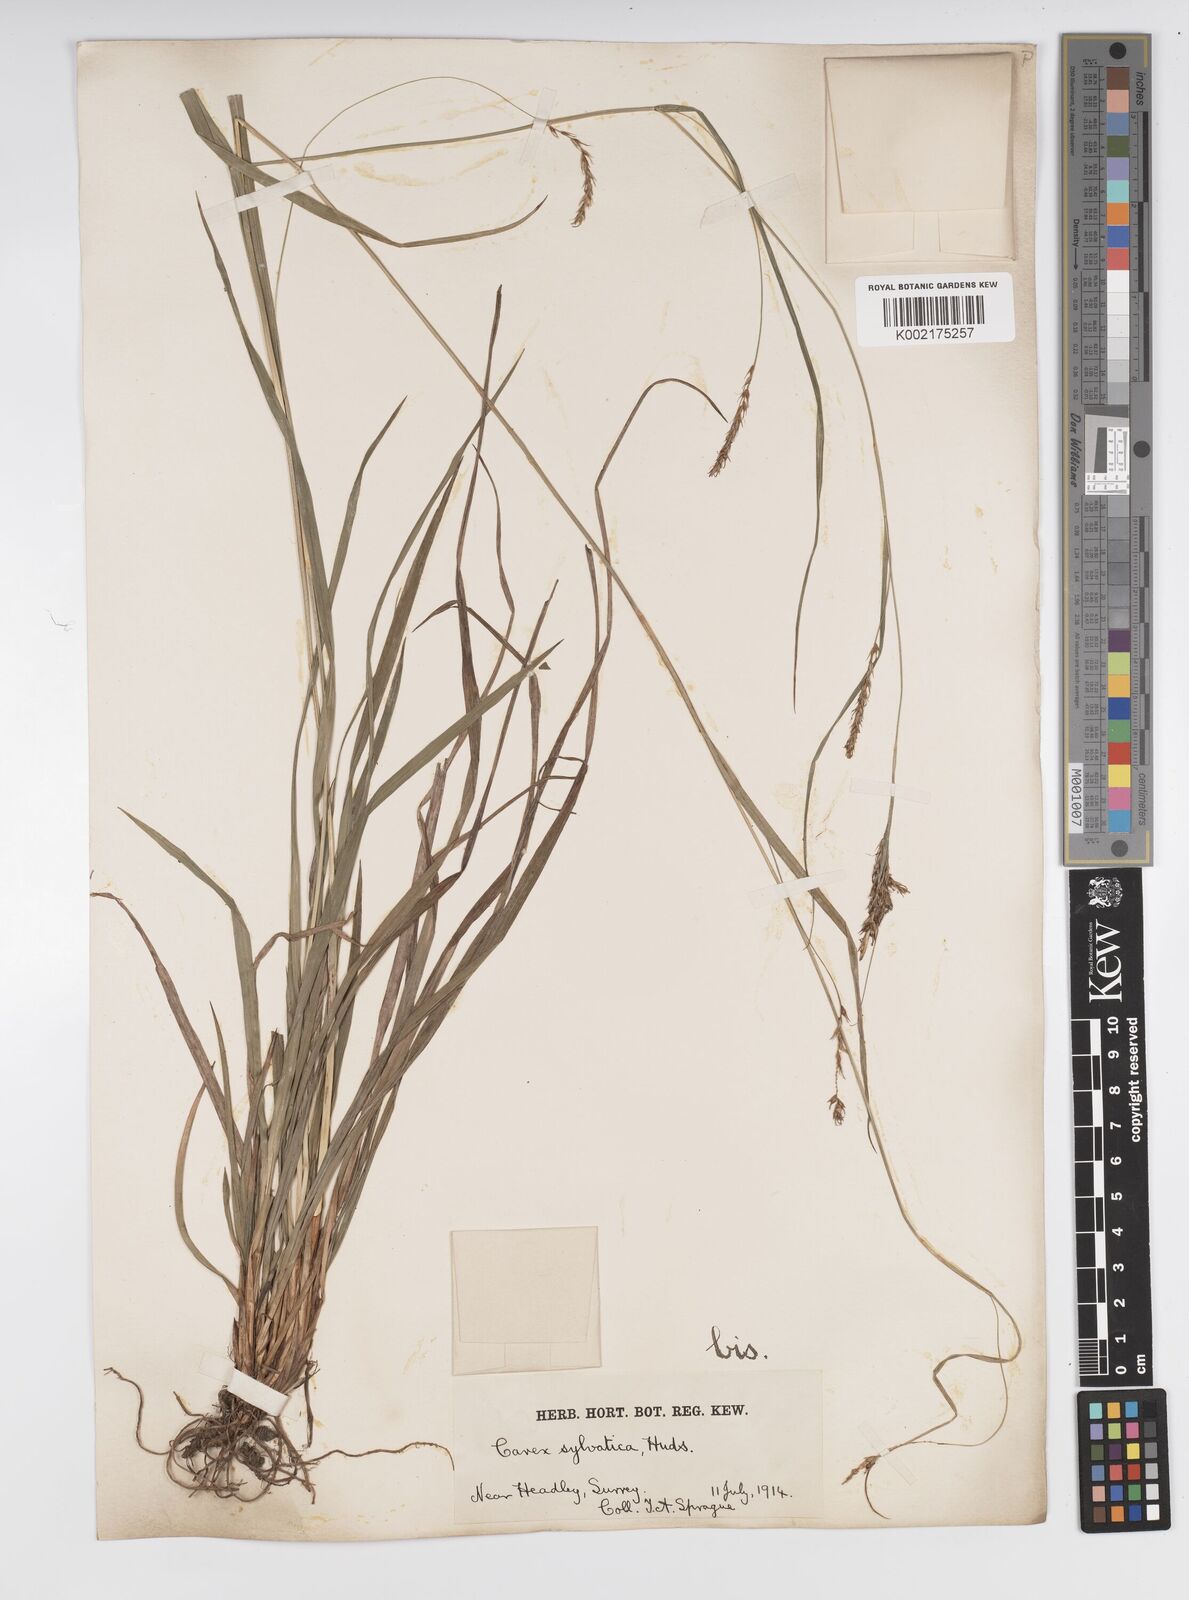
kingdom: Plantae
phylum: Tracheophyta
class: Liliopsida
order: Poales
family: Cyperaceae
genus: Carex
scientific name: Carex sylvatica
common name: Wood-sedge
